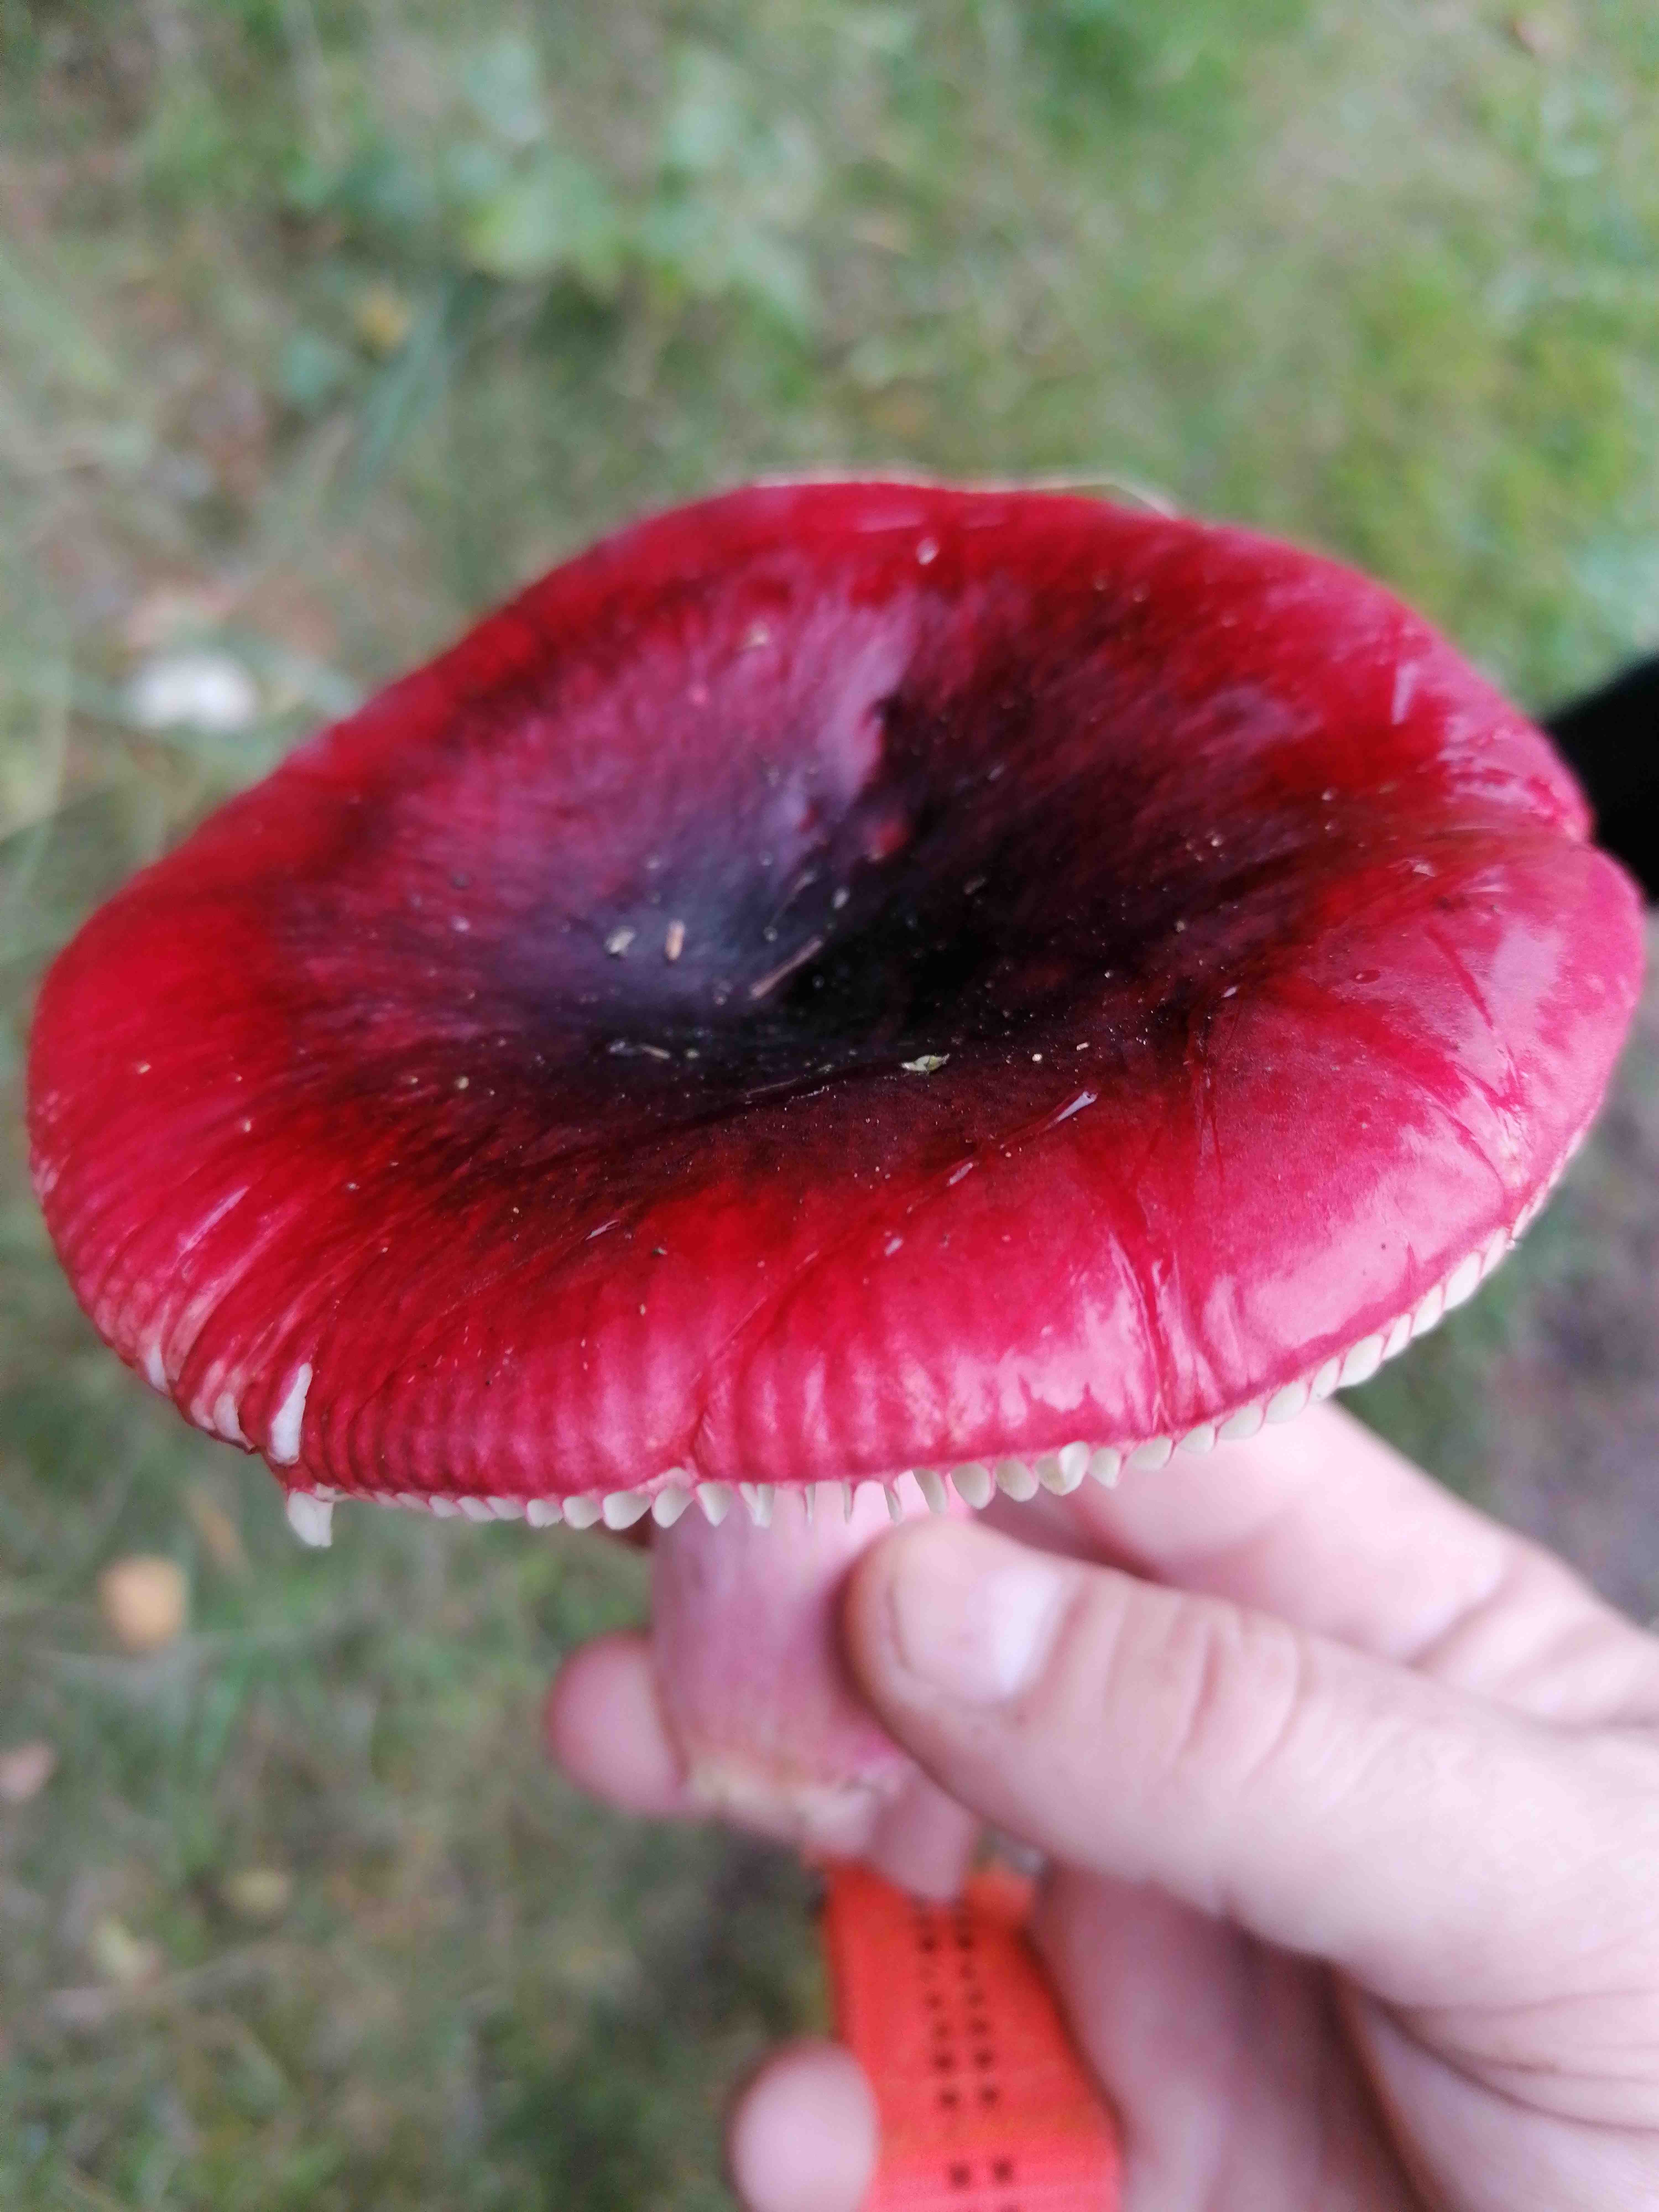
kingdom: Fungi
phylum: Basidiomycota
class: Agaricomycetes
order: Russulales
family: Russulaceae
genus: Russula
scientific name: Russula xerampelina
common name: hummer-skørhat
